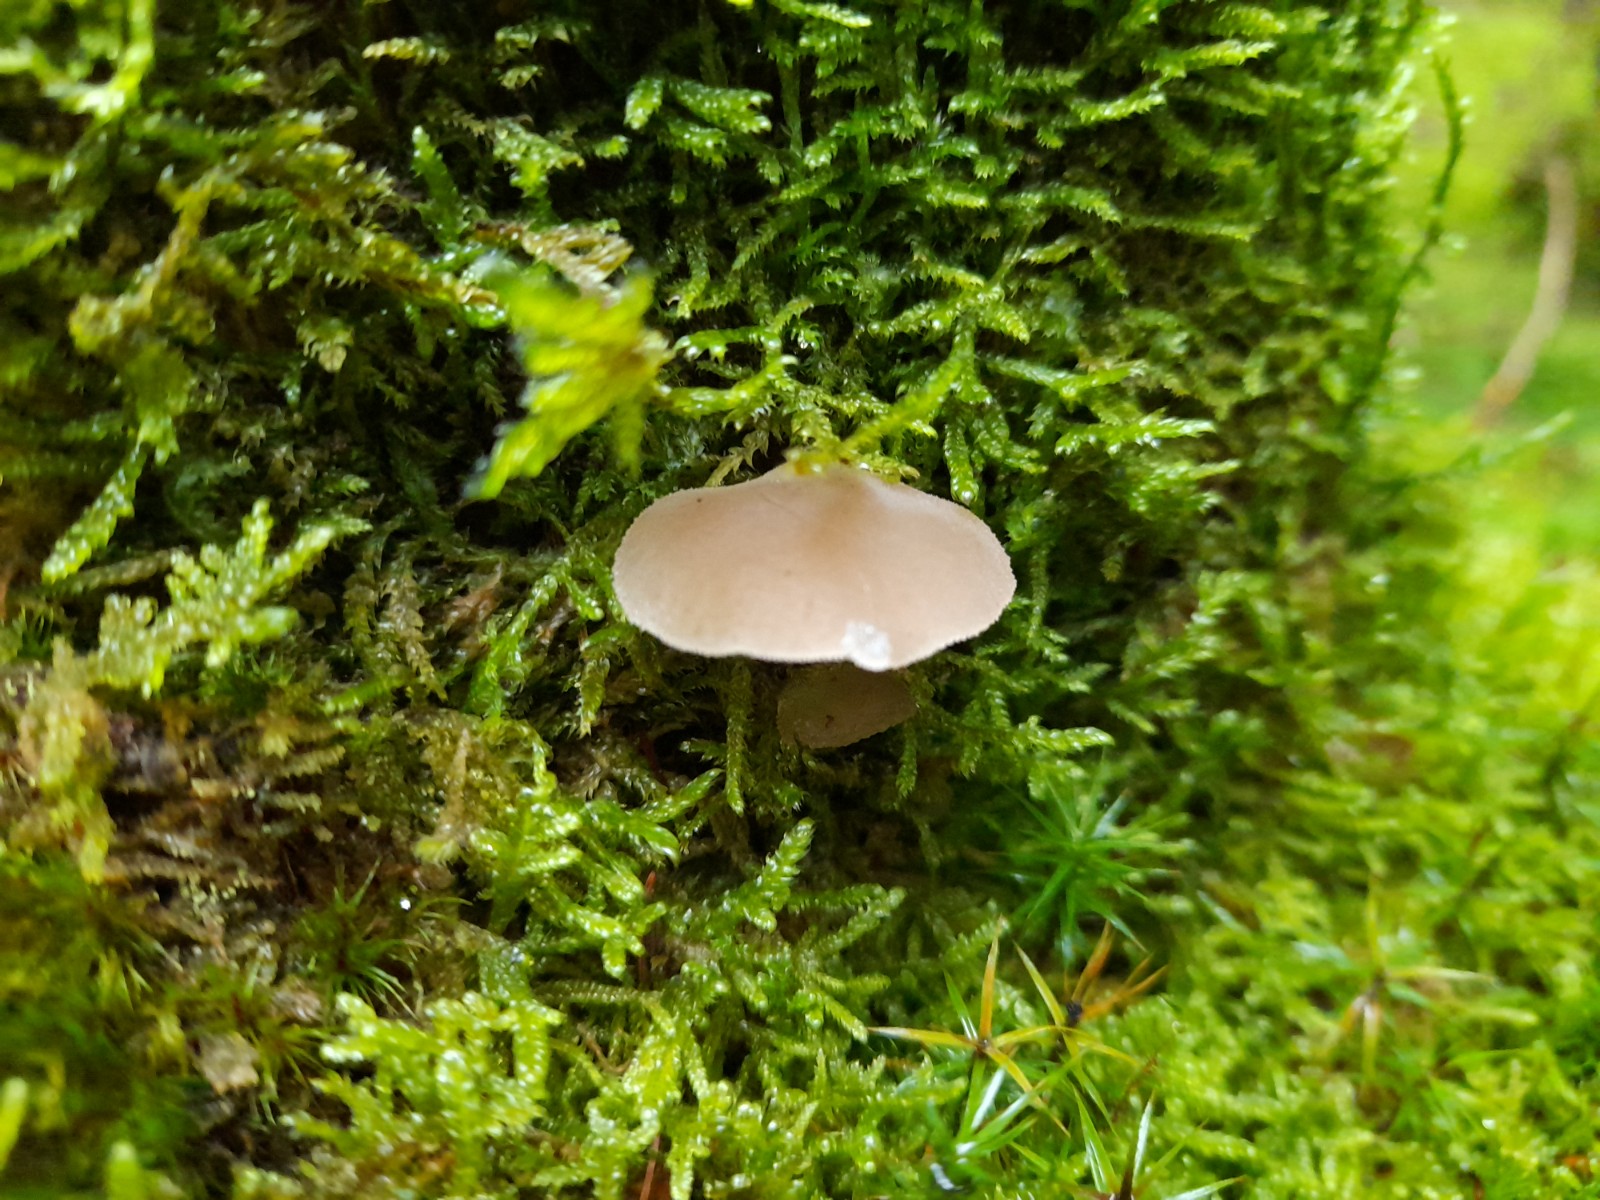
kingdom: Fungi
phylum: Basidiomycota
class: Agaricomycetes
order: Auriculariales
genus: Pseudohydnum
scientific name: Pseudohydnum gelatinosum
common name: bævretand
